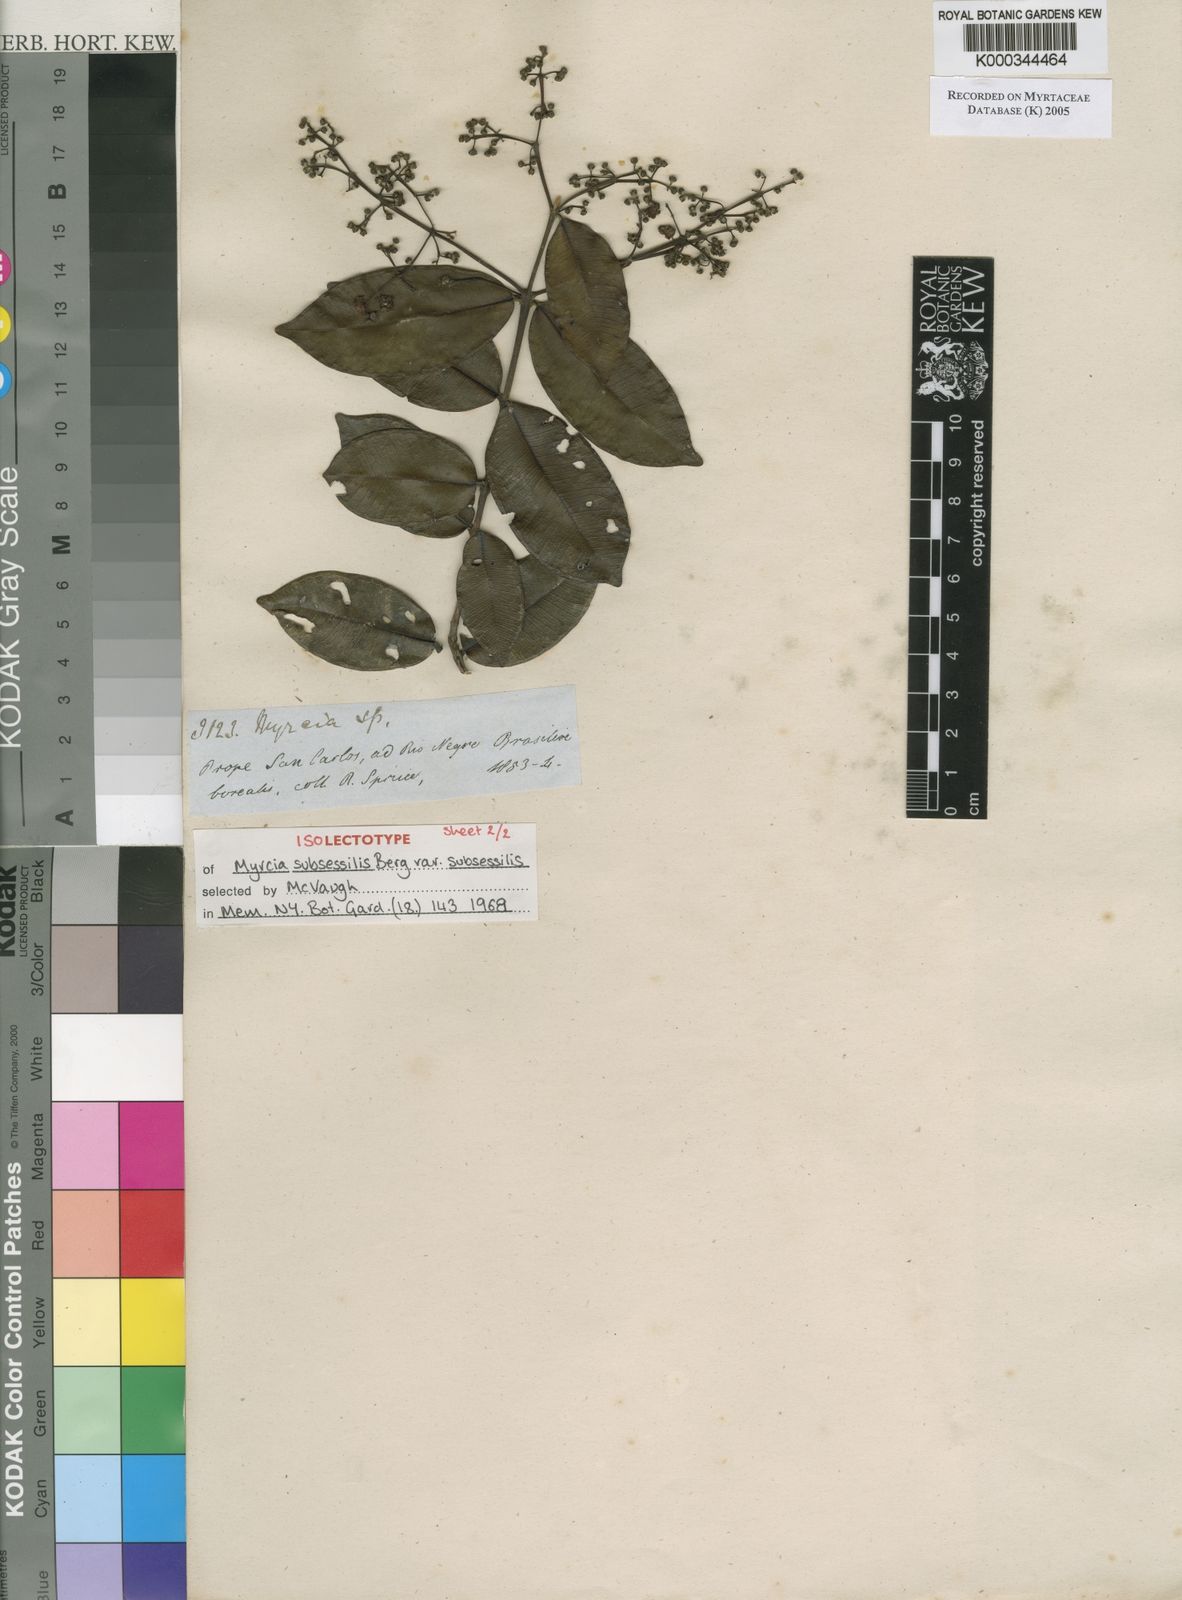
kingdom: Plantae
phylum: Tracheophyta
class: Magnoliopsida
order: Myrtales
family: Myrtaceae
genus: Myrcia
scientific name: Myrcia subsessilis
